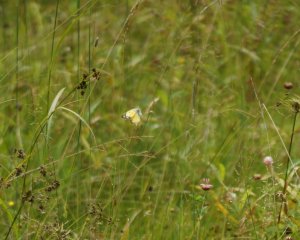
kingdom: Animalia
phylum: Arthropoda
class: Insecta
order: Lepidoptera
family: Pieridae
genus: Colias
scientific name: Colias philodice
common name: Clouded Sulphur
